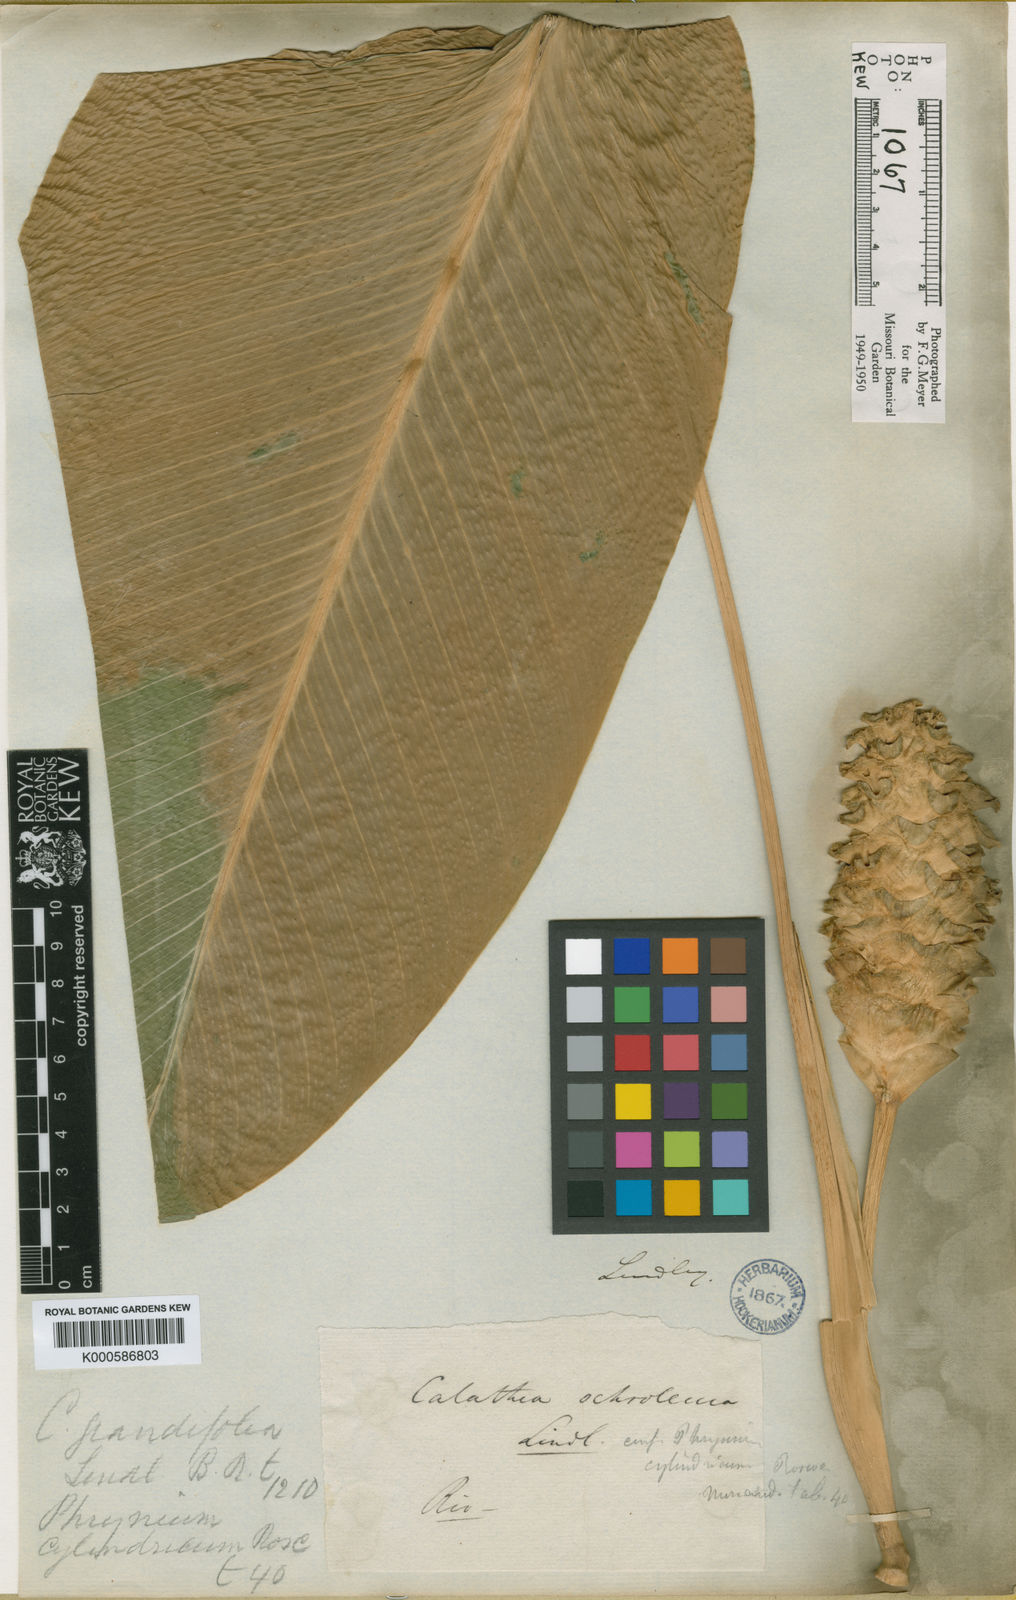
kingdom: Plantae
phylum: Tracheophyta
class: Liliopsida
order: Zingiberales
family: Marantaceae
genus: Goeppertia
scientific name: Goeppertia cylindrica
